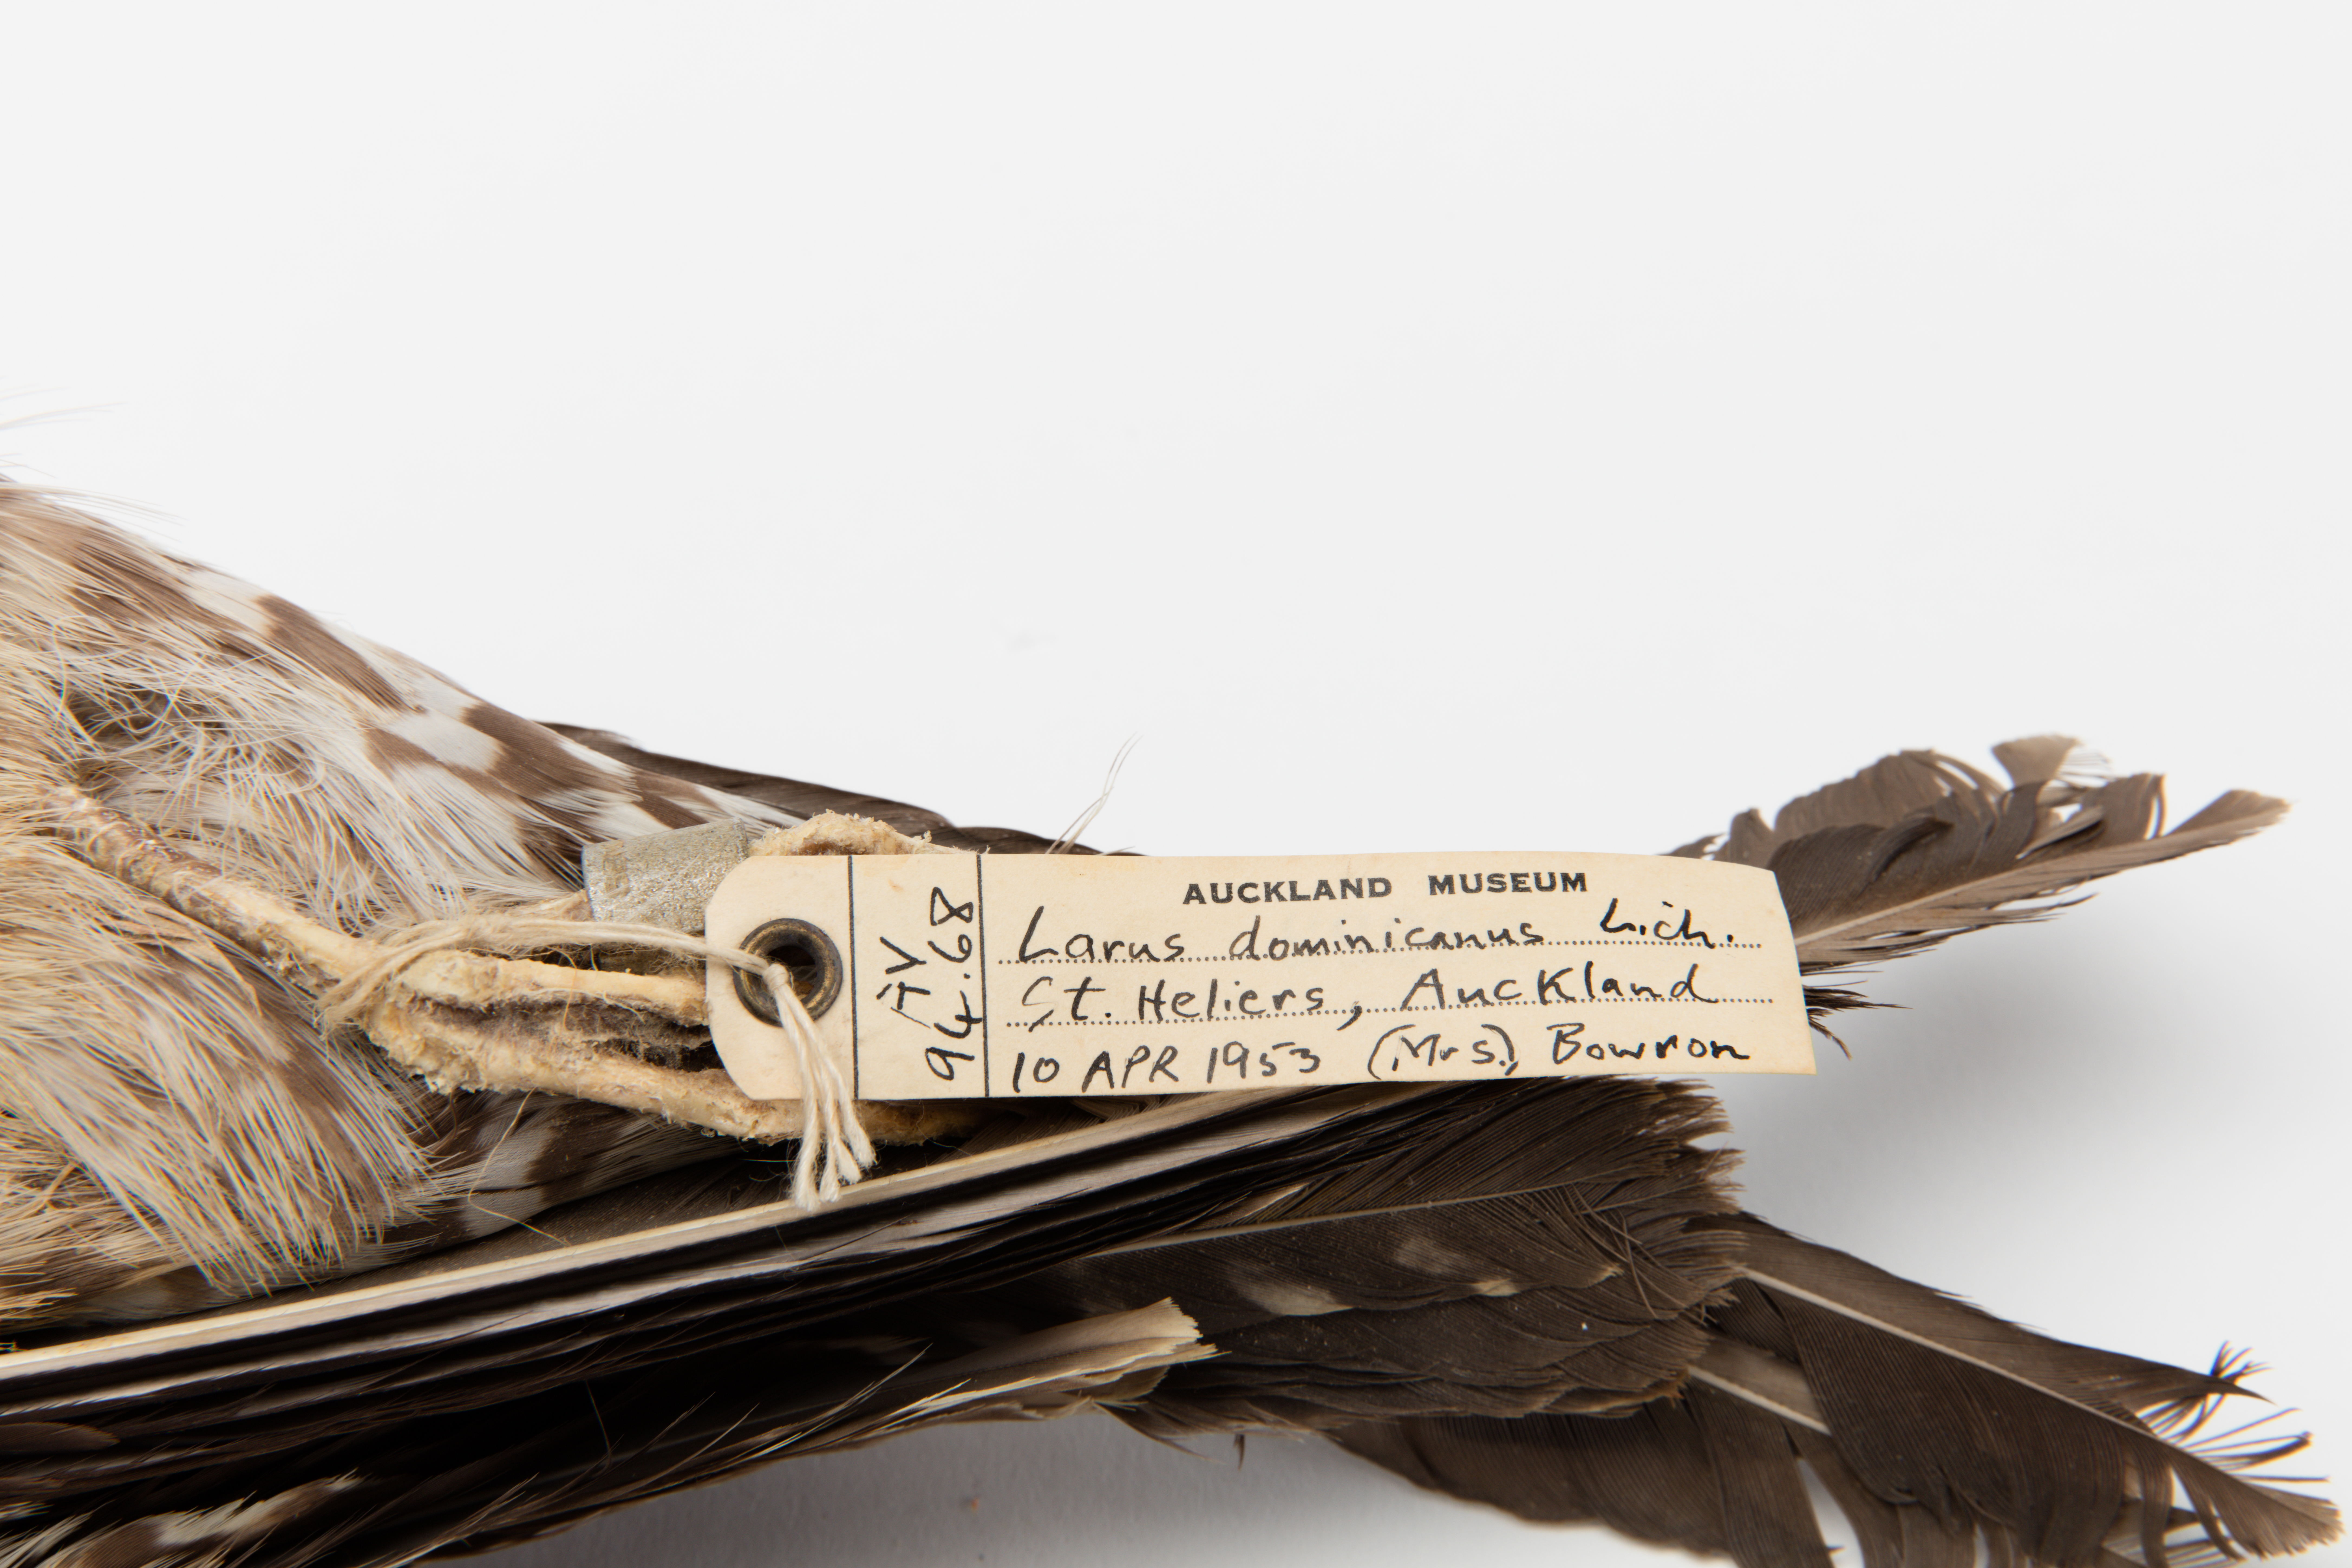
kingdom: Animalia
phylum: Chordata
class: Aves
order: Charadriiformes
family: Laridae
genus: Larus
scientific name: Larus dominicanus
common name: Kelp gull
